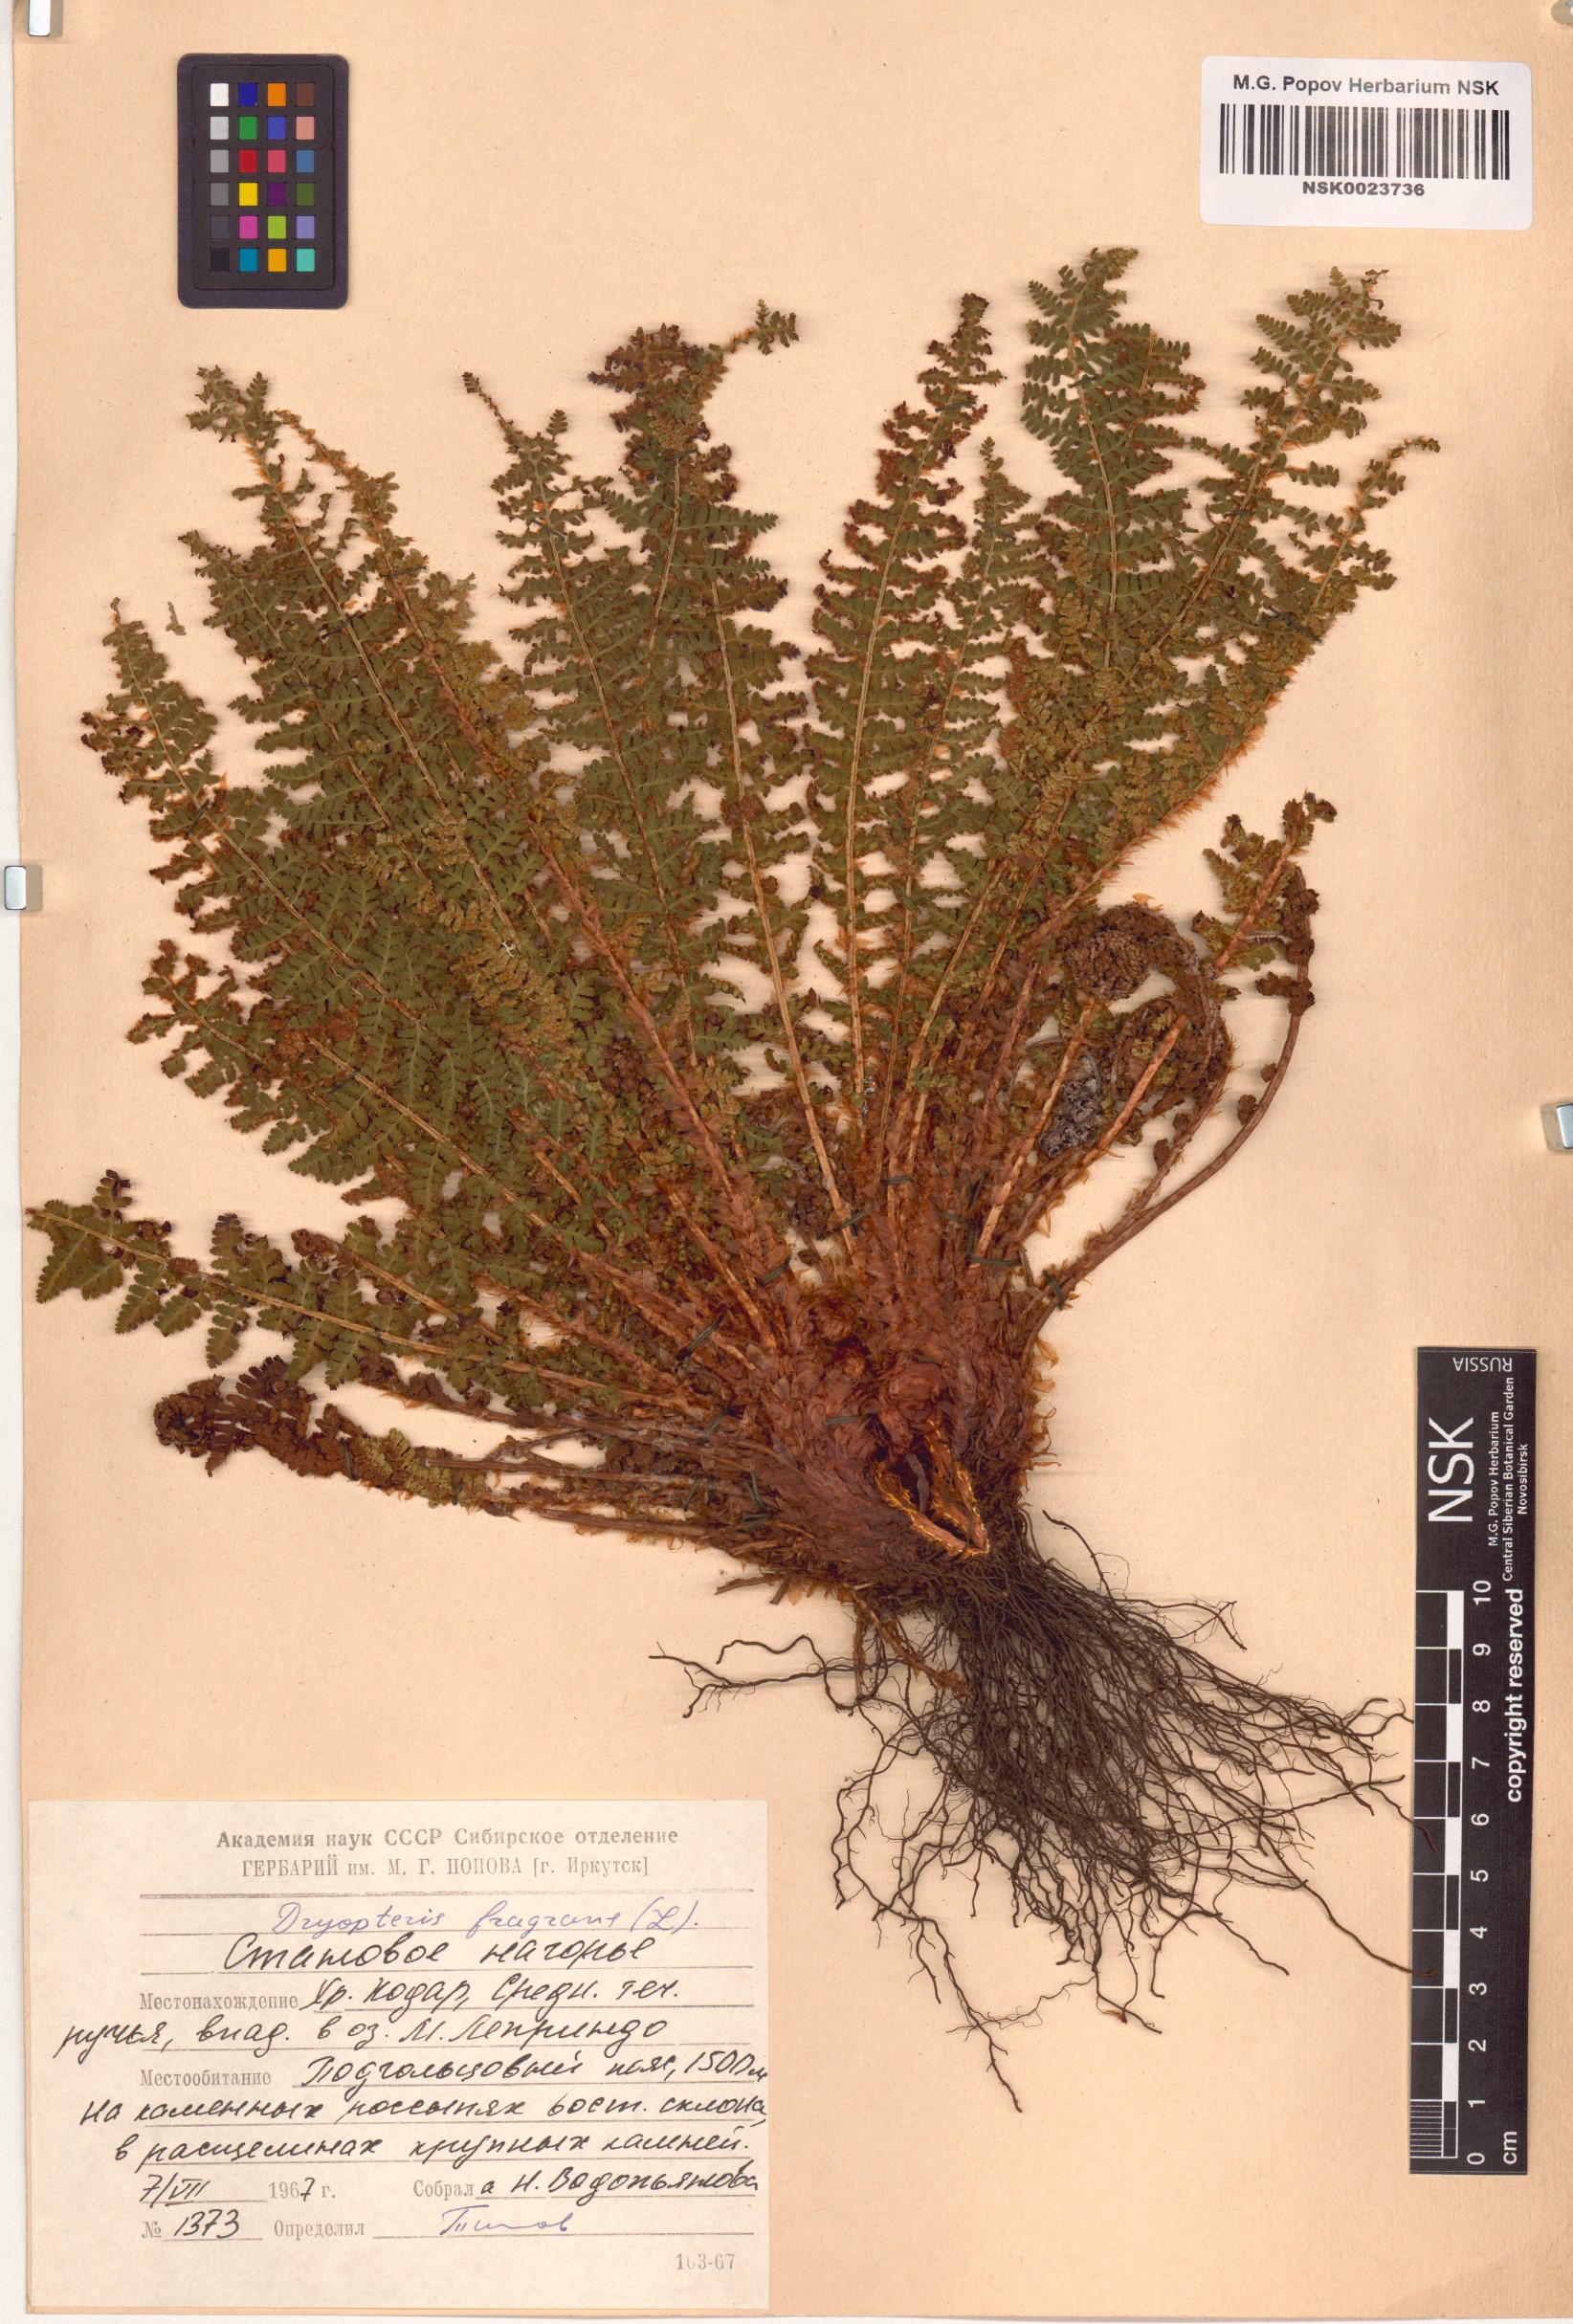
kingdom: Plantae
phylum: Tracheophyta
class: Polypodiopsida
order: Polypodiales
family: Dryopteridaceae
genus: Dryopteris
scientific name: Dryopteris fragrans
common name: Fragrant wood fern
